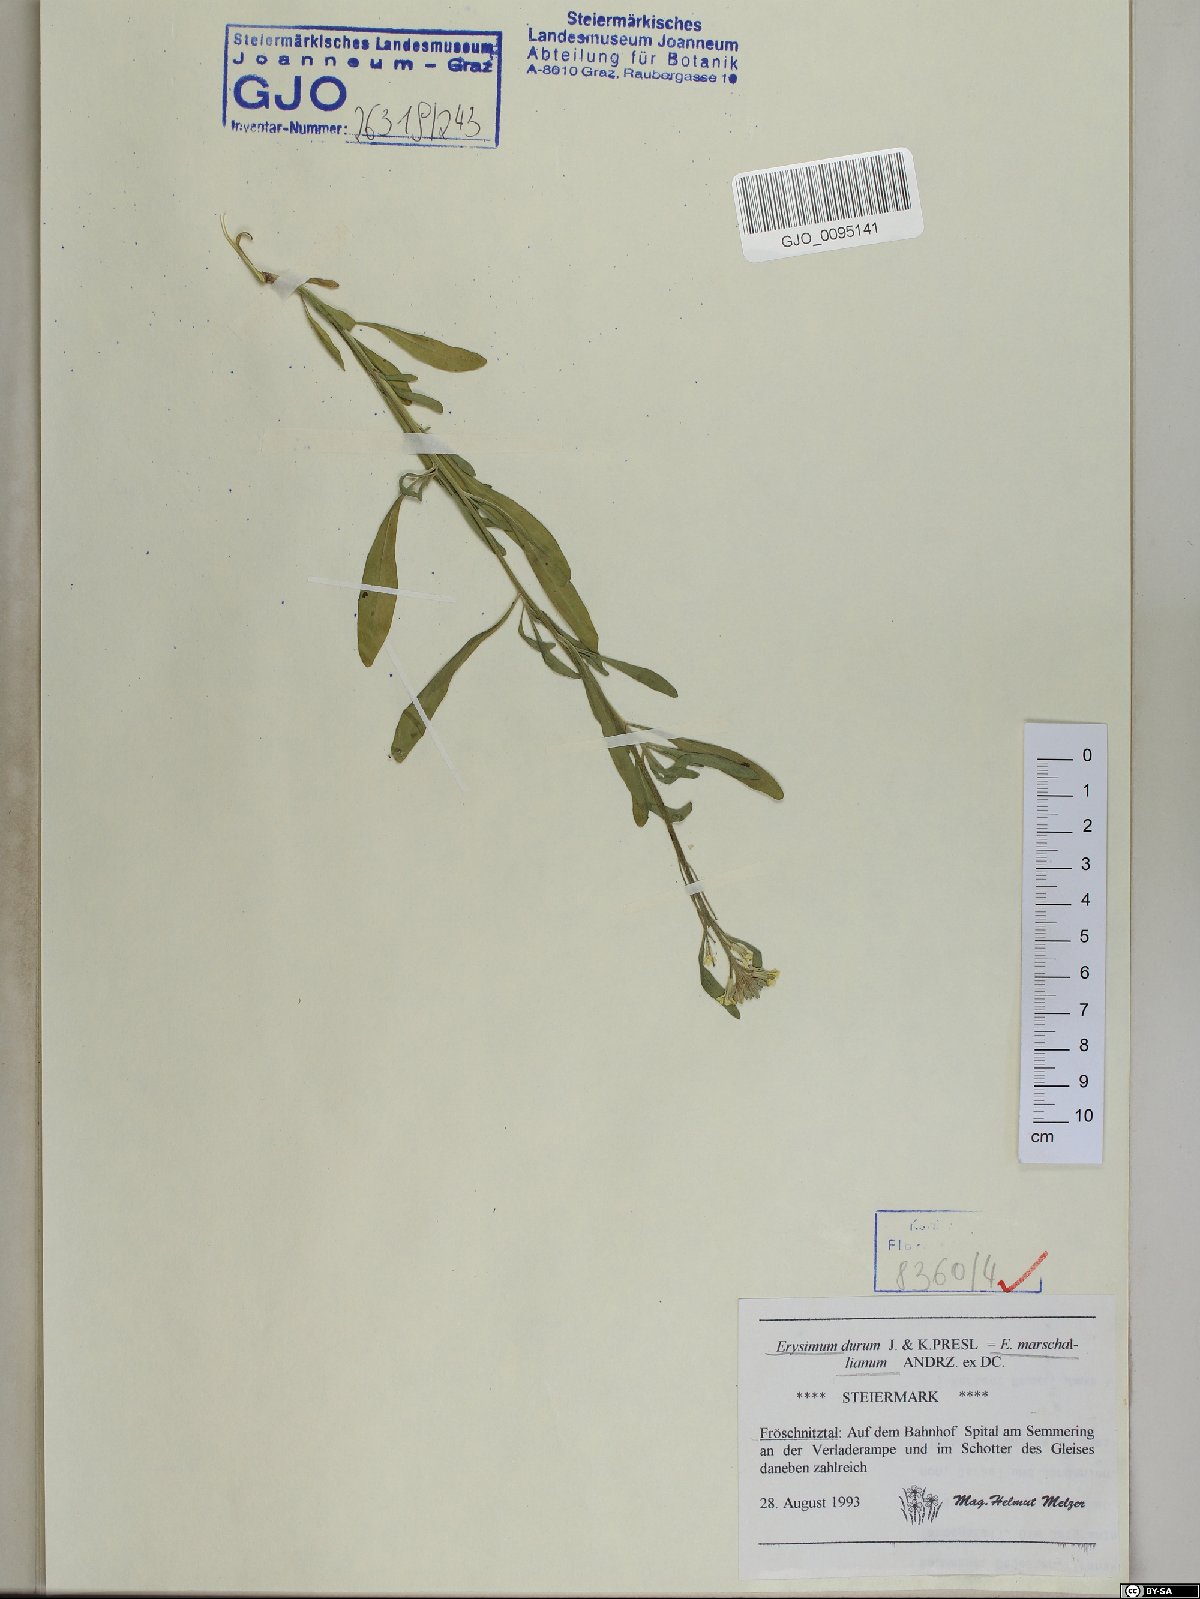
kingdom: Plantae
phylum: Tracheophyta
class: Magnoliopsida
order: Brassicales
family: Brassicaceae
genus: Erysimum
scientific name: Erysimum marschallianum
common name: Hard wallflower
